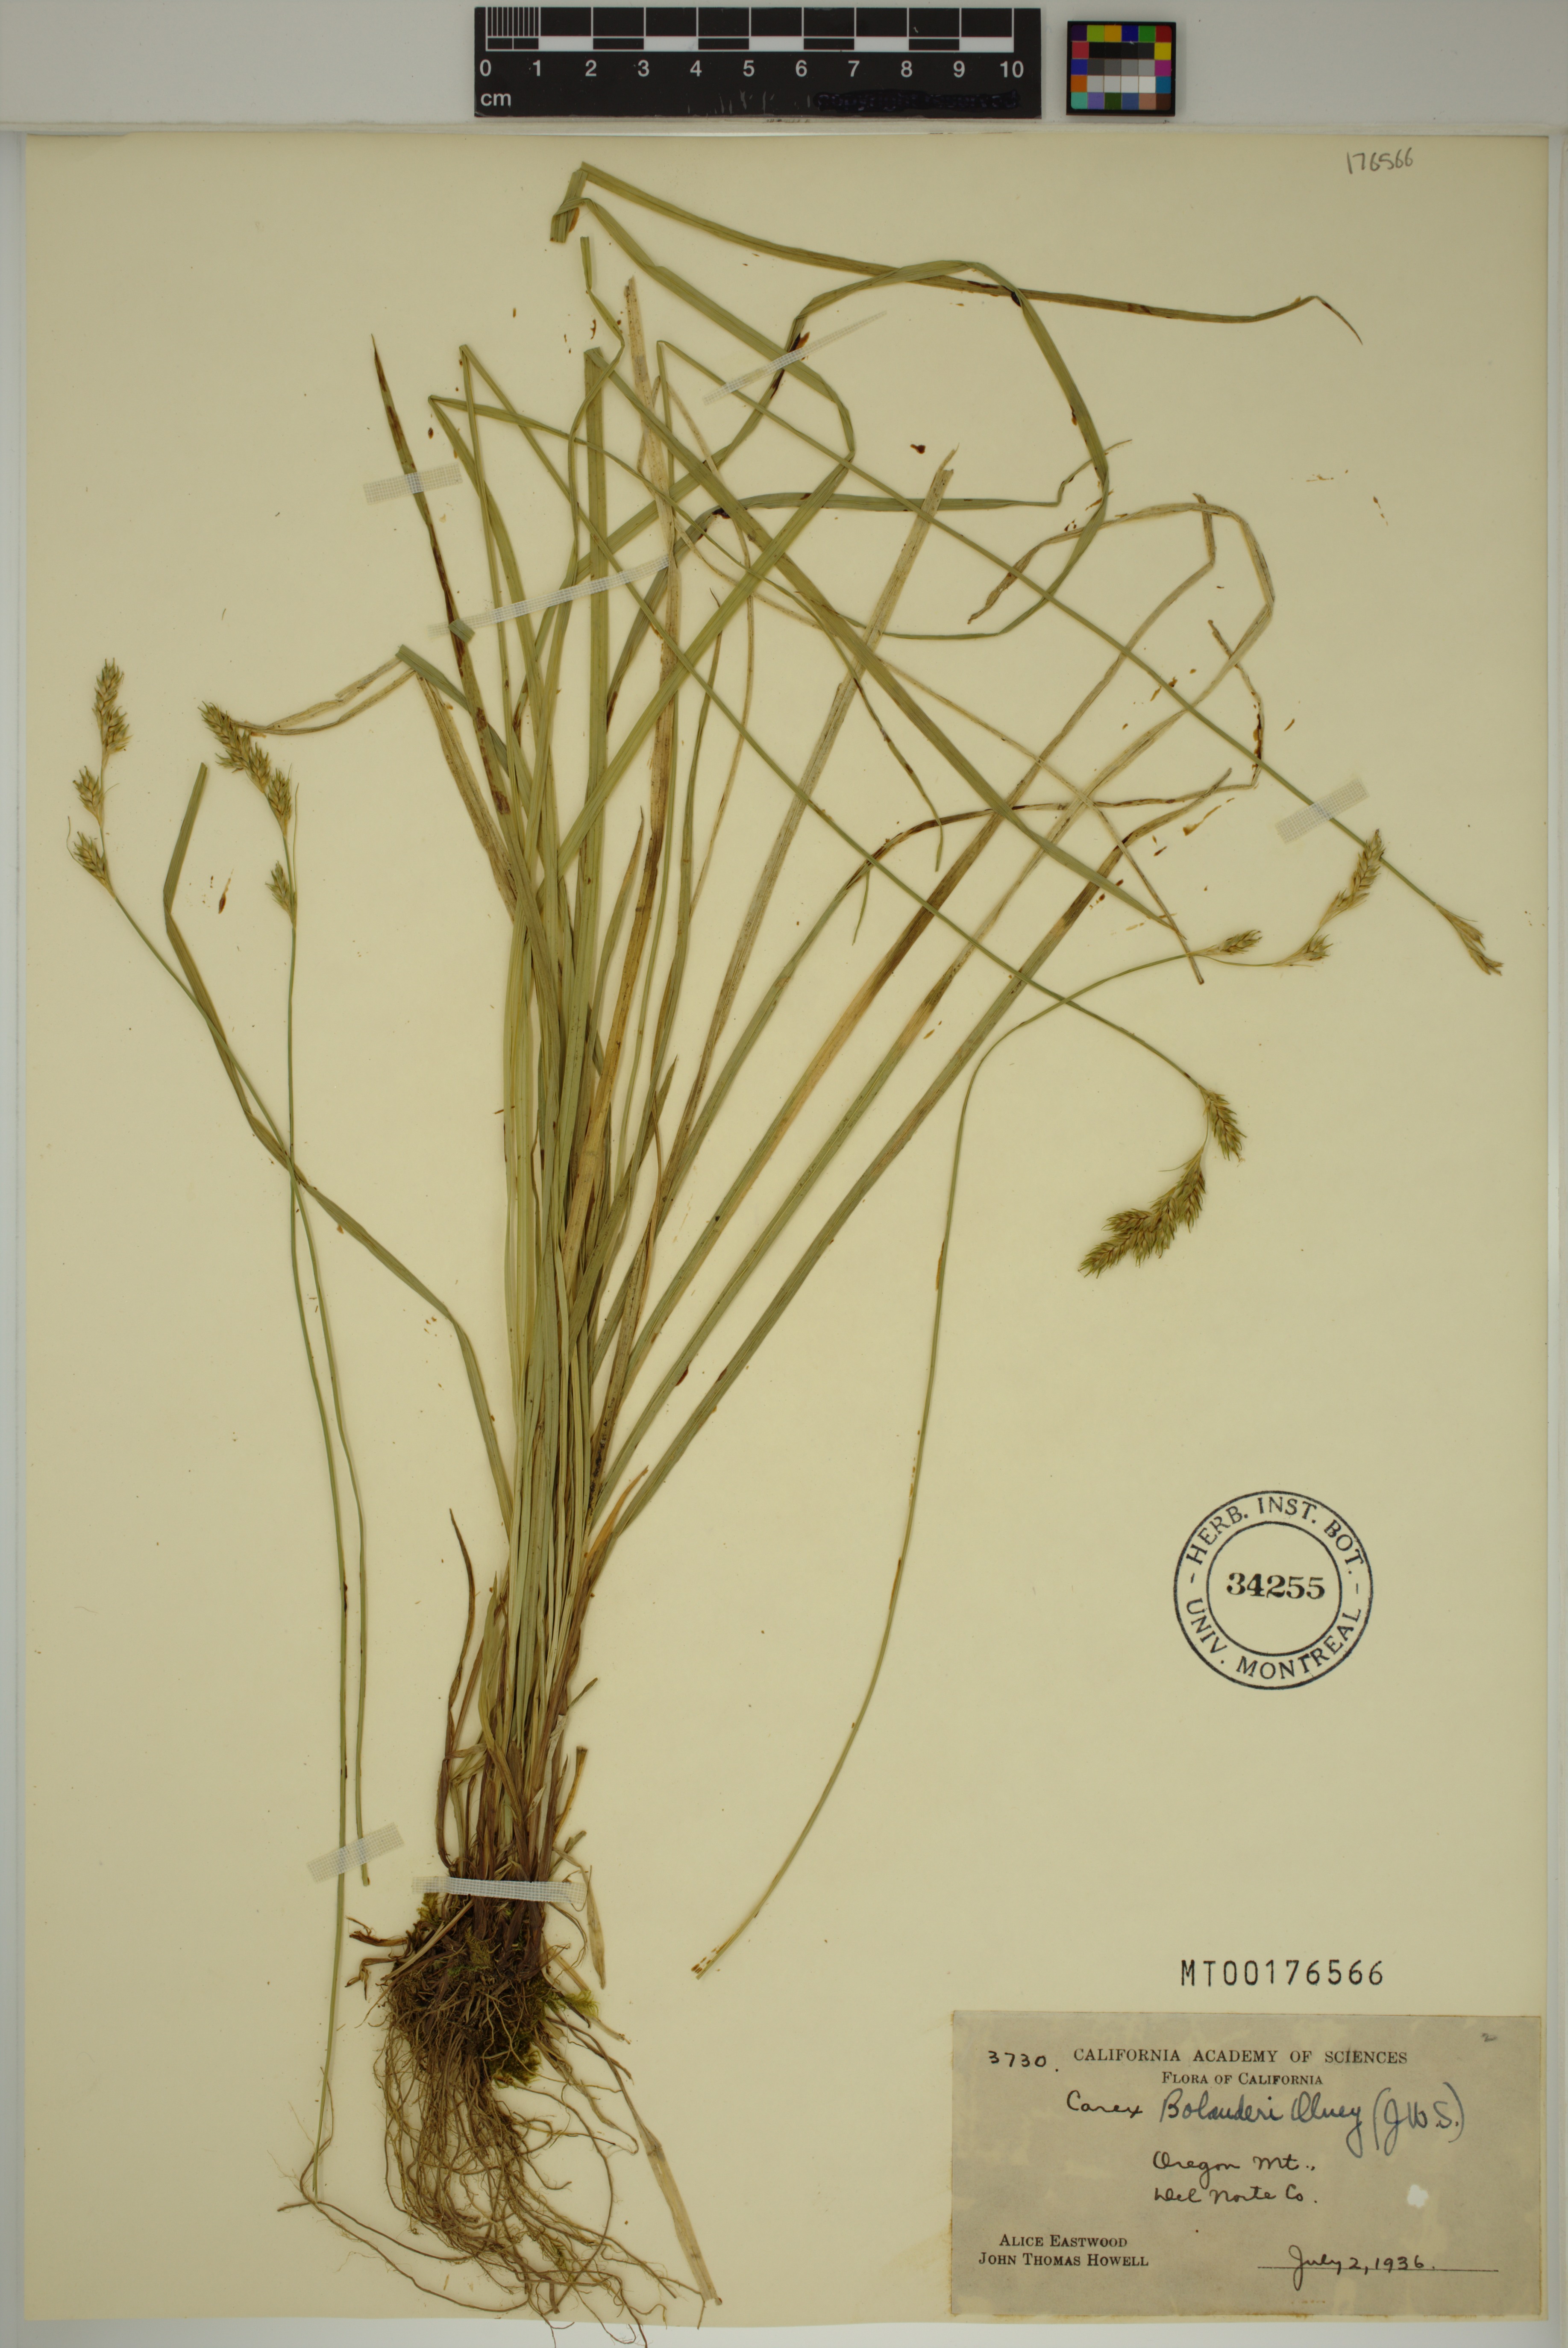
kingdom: Plantae
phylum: Tracheophyta
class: Liliopsida
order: Poales
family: Cyperaceae
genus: Carex
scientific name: Carex bolanderi
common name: Bolander's sedge
